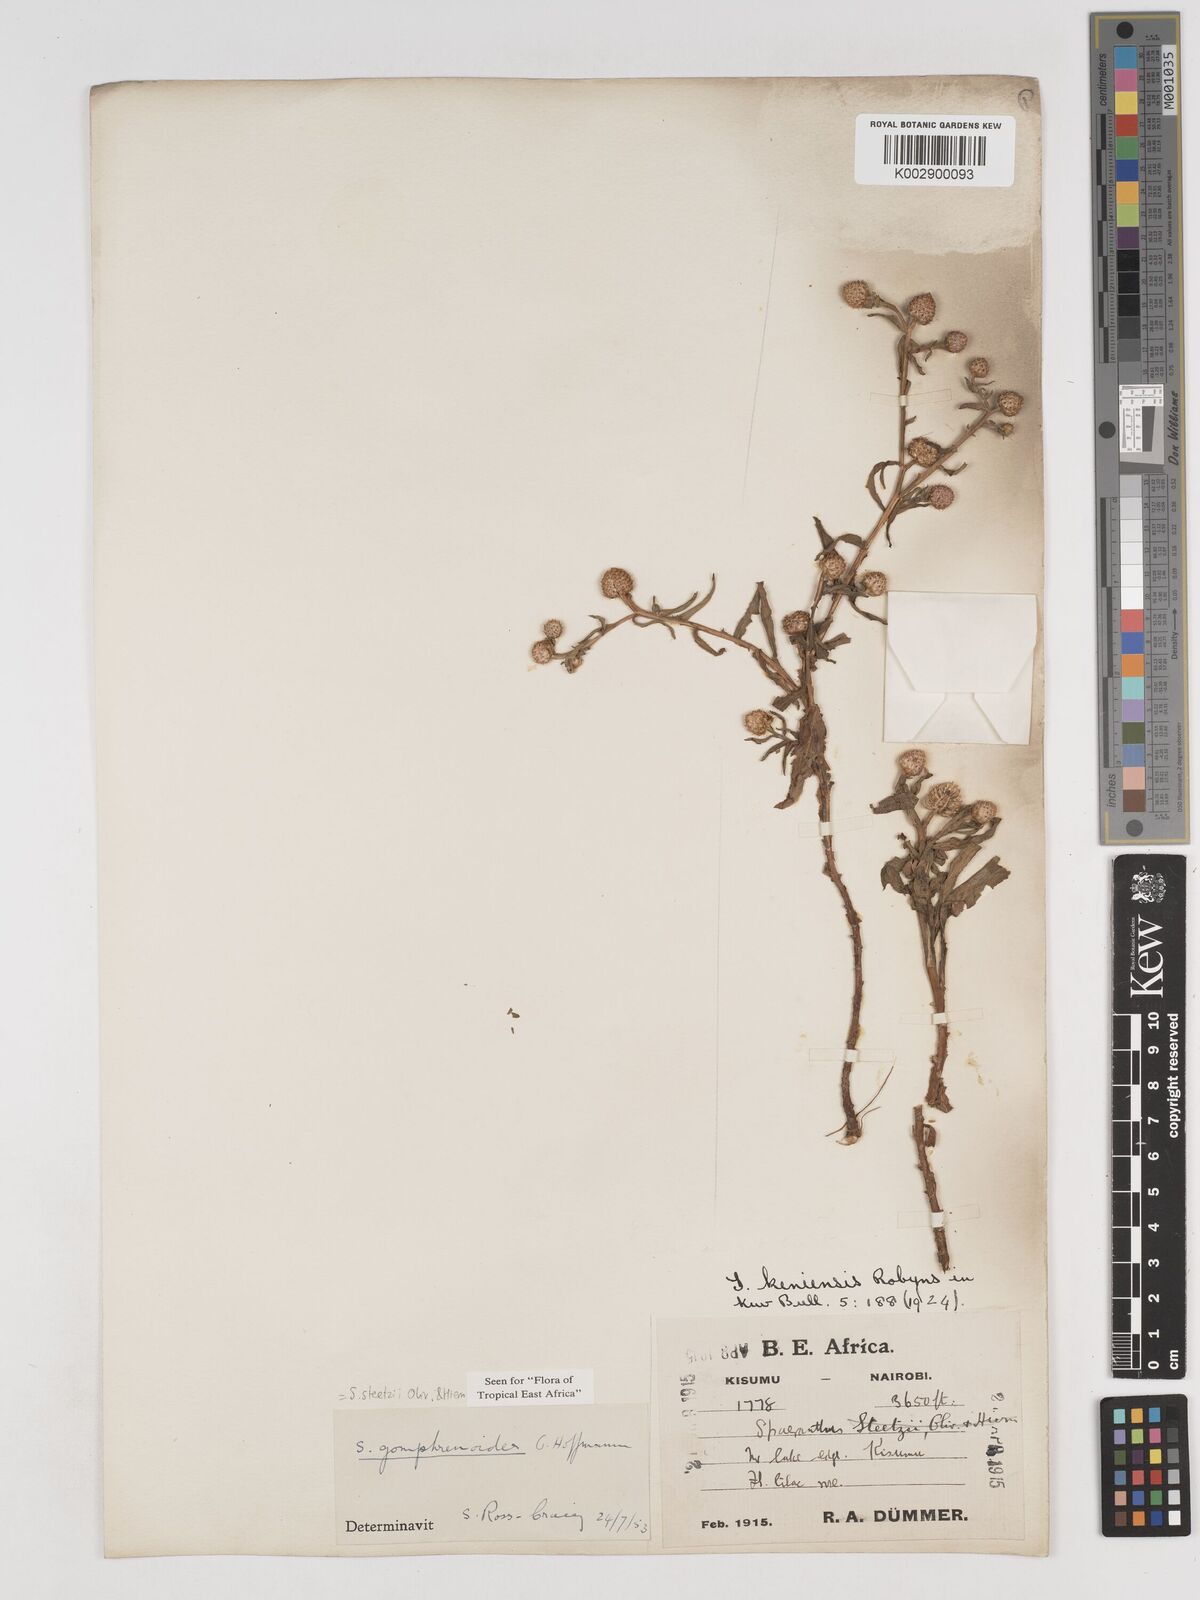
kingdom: Plantae
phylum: Tracheophyta
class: Magnoliopsida
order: Asterales
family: Asteraceae
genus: Sphaeranthus
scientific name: Sphaeranthus steetzii
